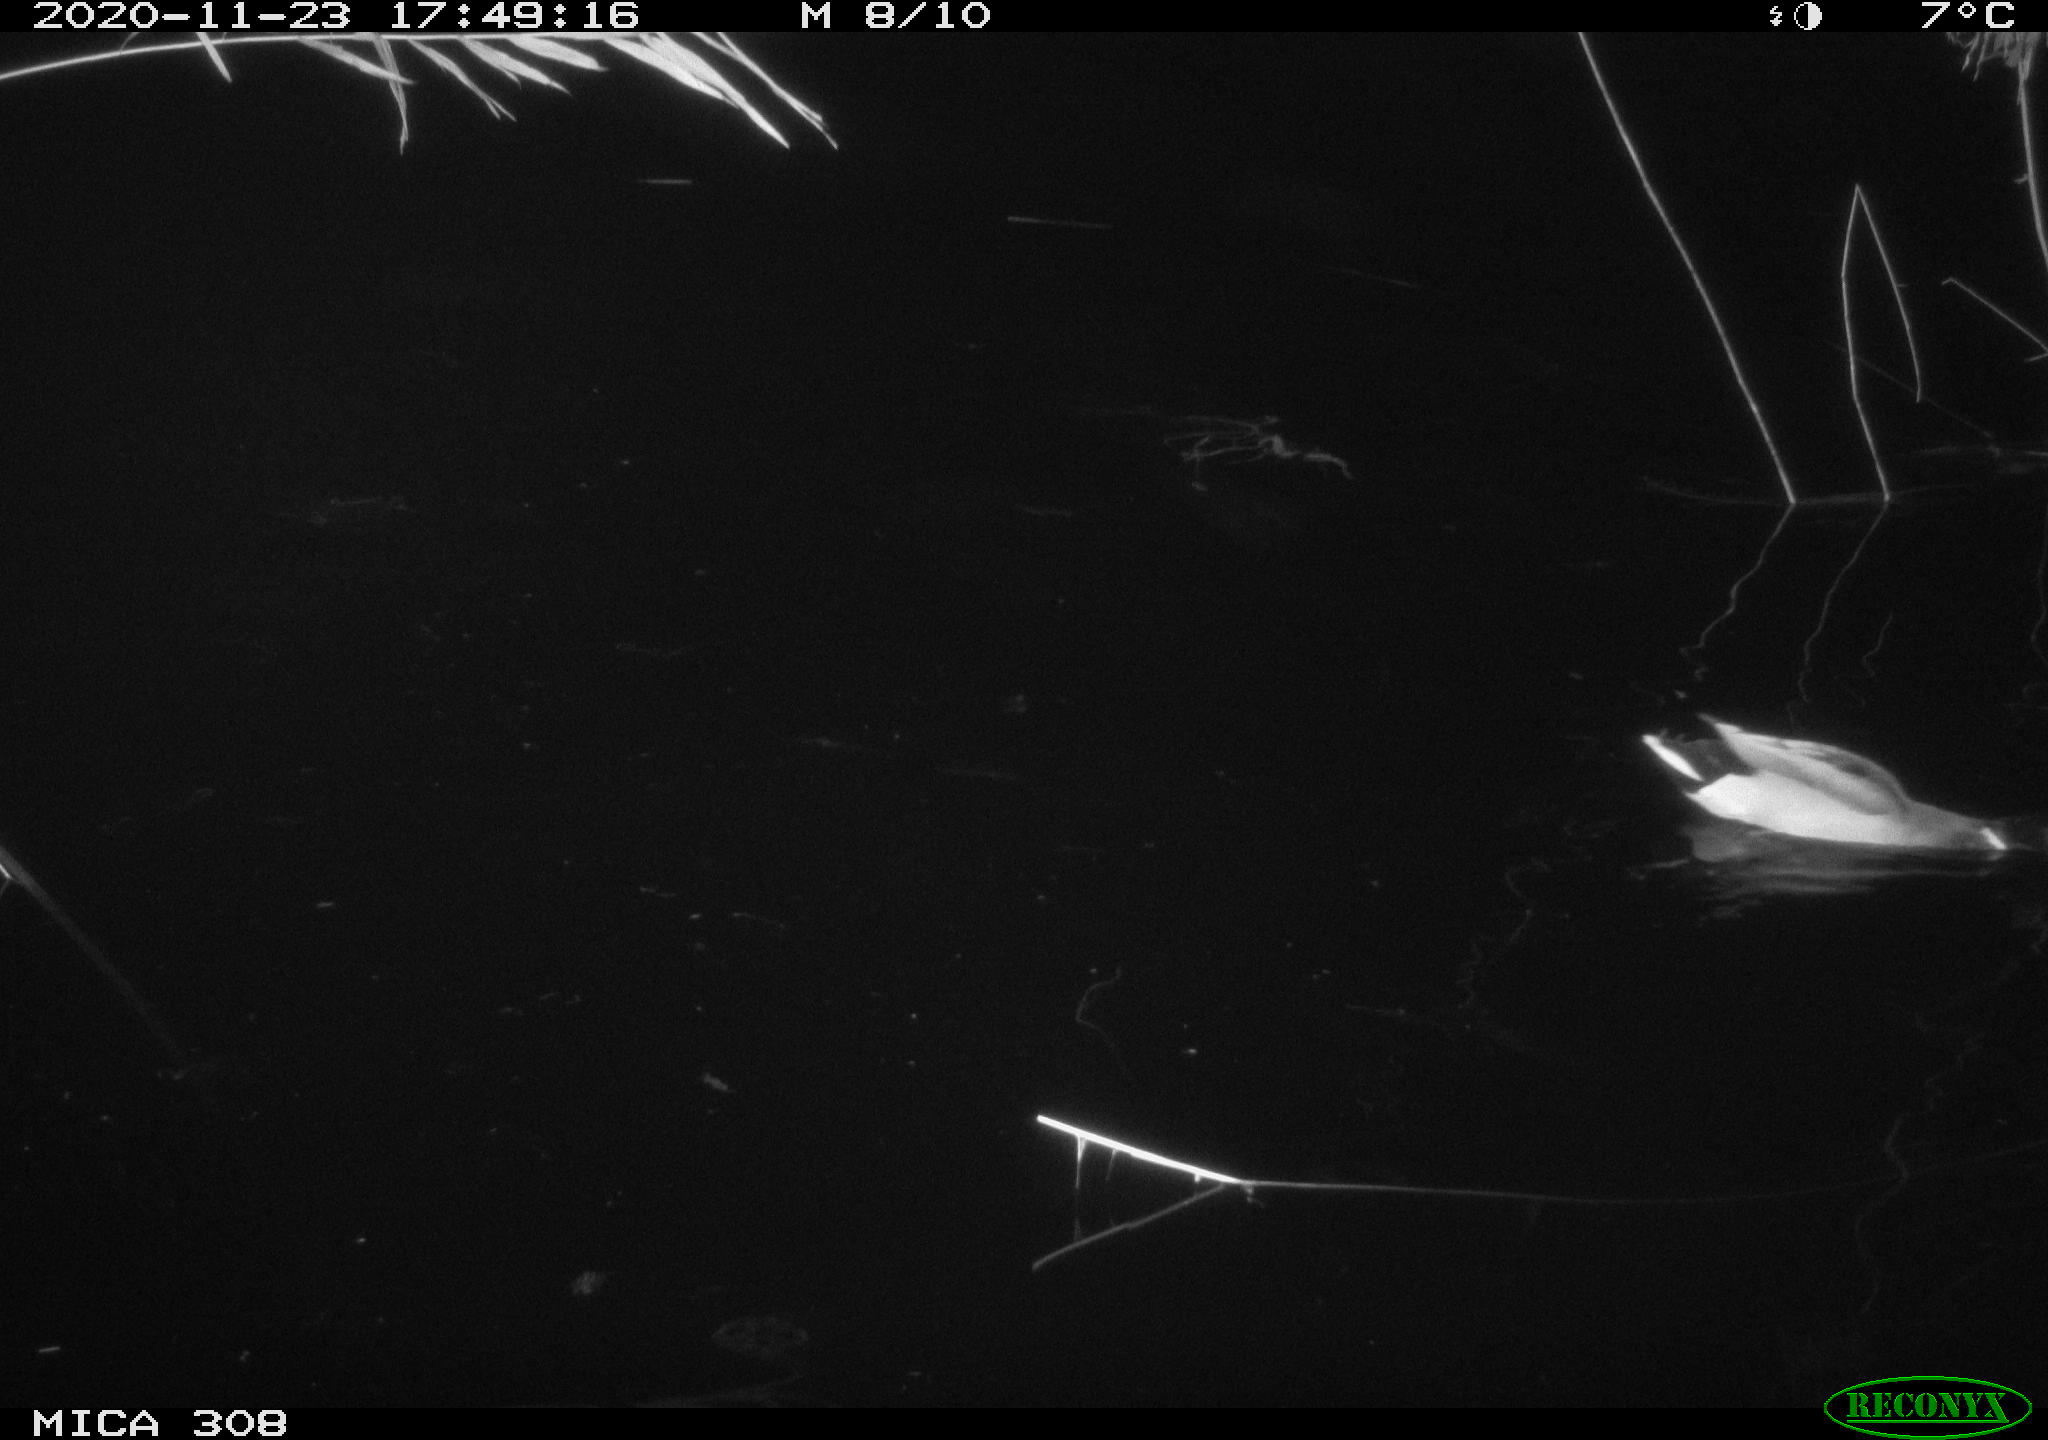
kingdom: Animalia
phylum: Chordata
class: Aves
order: Anseriformes
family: Anatidae
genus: Anas
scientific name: Anas platyrhynchos
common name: Mallard
